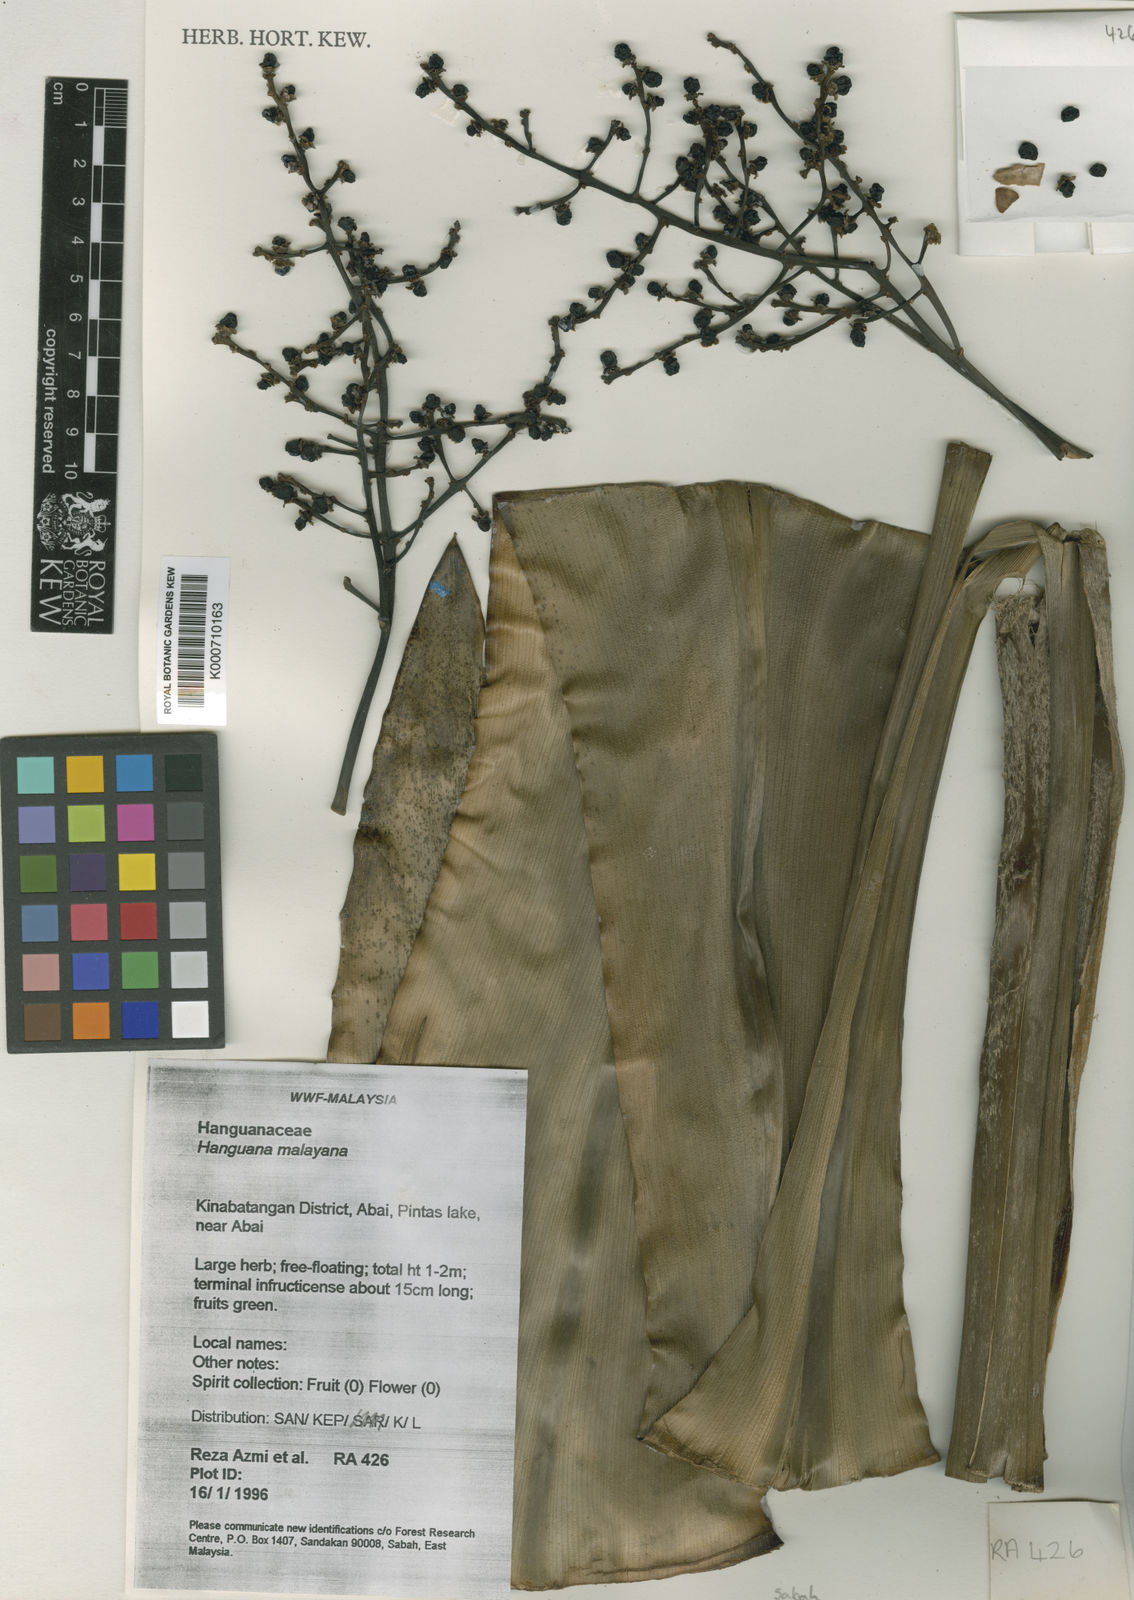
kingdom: Plantae
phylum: Tracheophyta
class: Liliopsida
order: Commelinales
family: Hanguanaceae
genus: Hanguana
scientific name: Hanguana malayana
